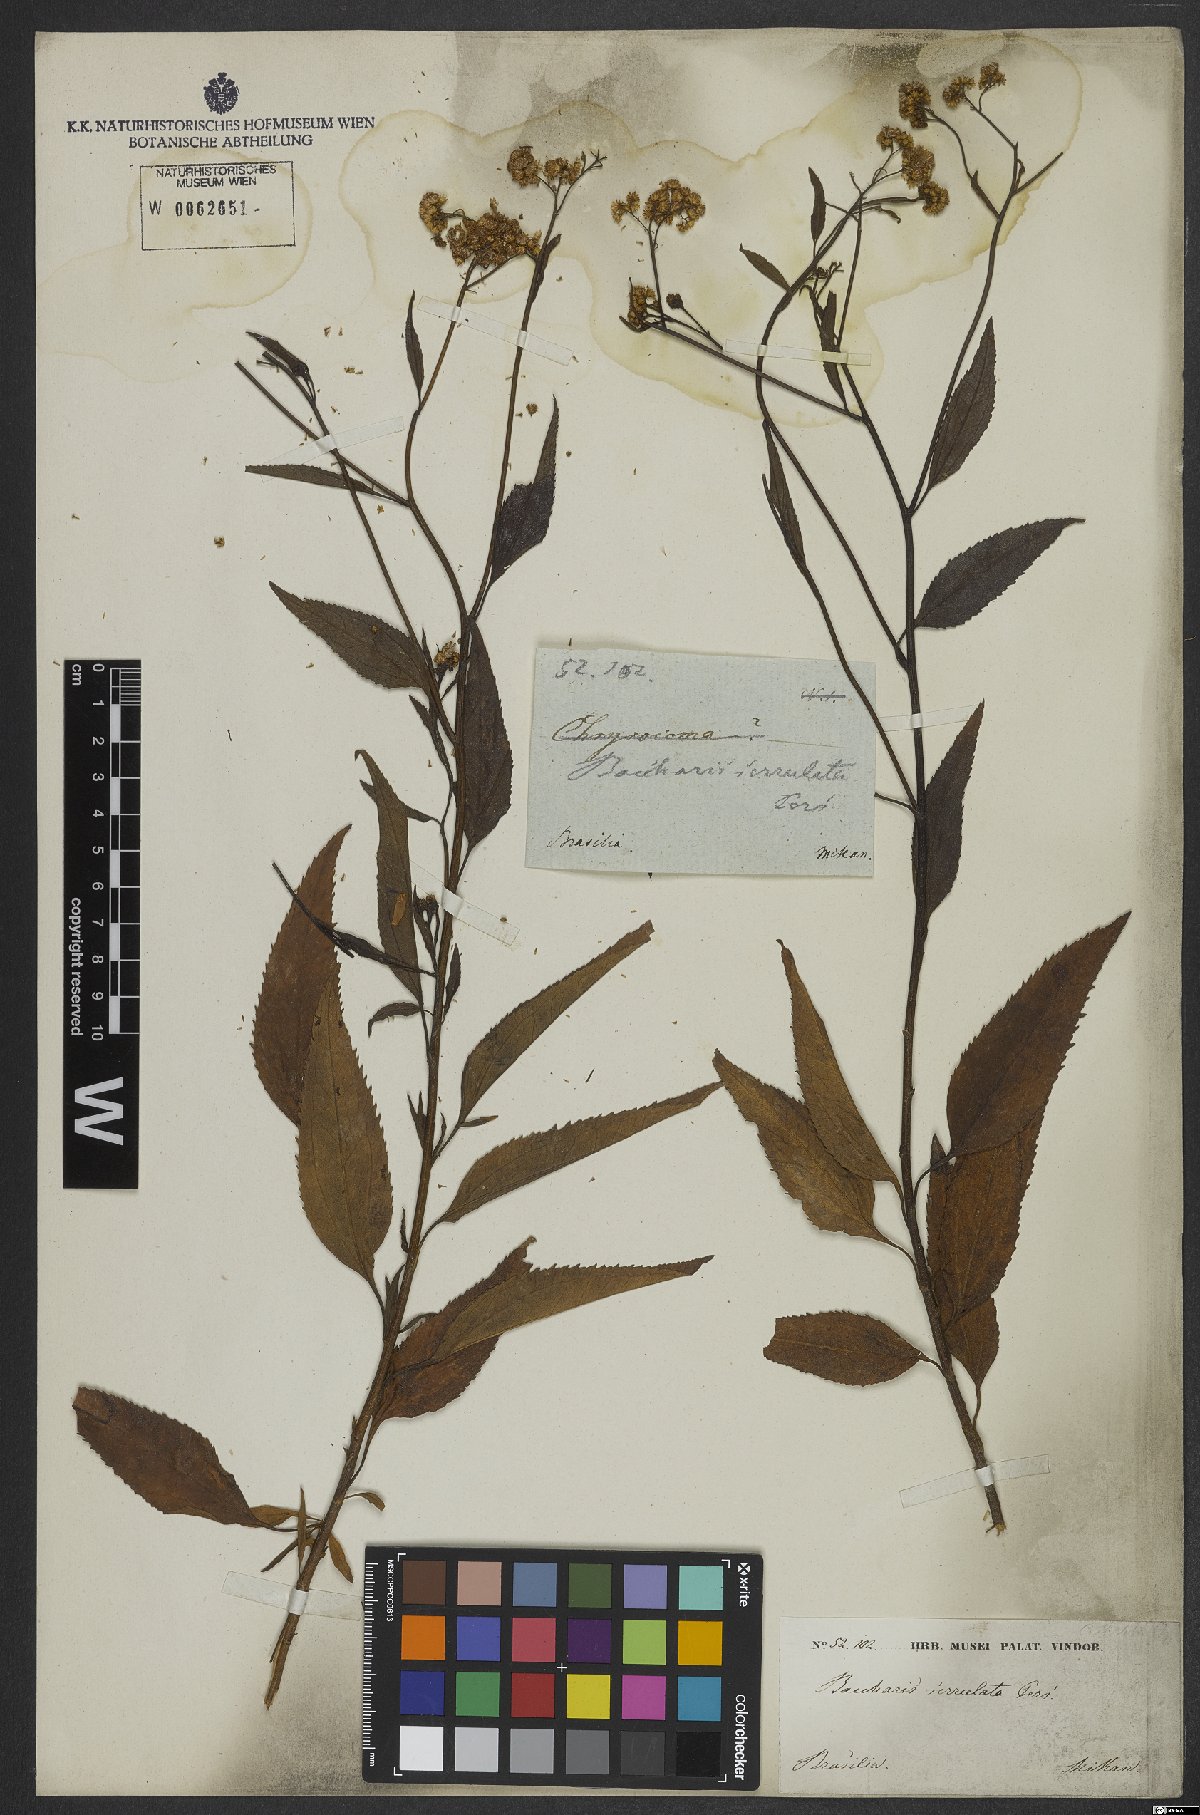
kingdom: Plantae
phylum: Tracheophyta
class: Magnoliopsida
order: Asterales
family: Asteraceae
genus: Archibaccharis
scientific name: Archibaccharis vulneraria
